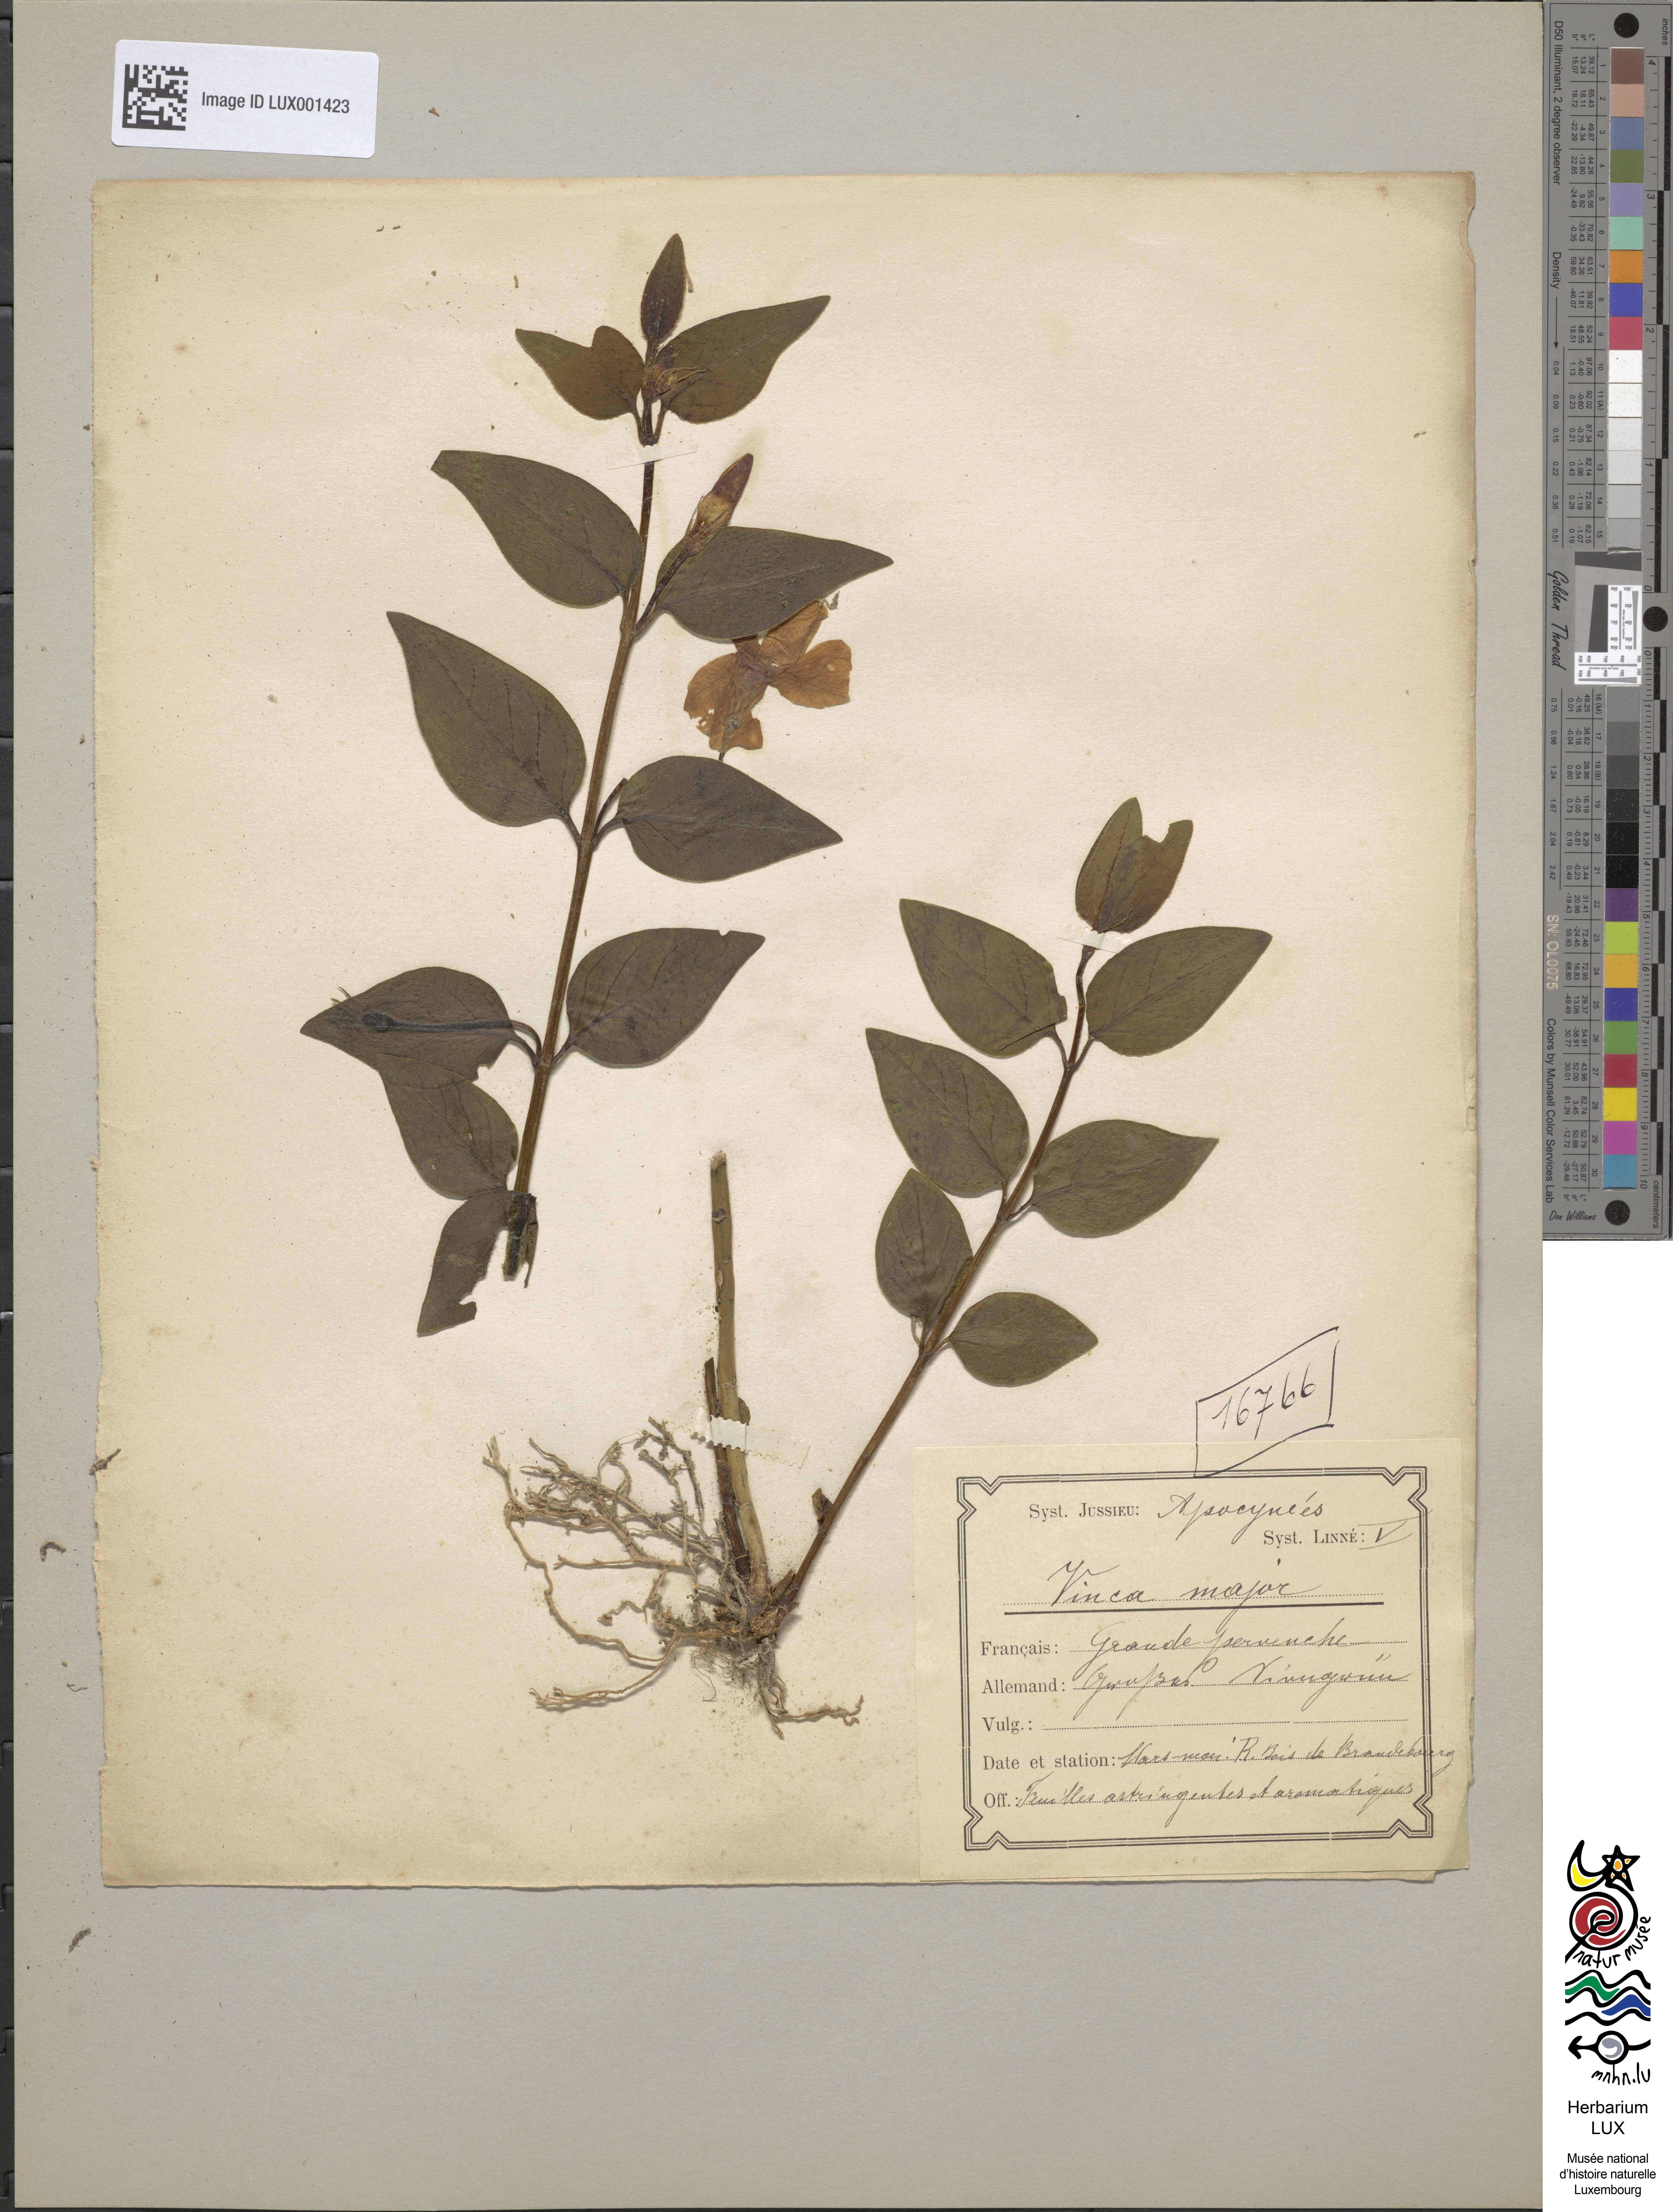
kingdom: Plantae
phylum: Tracheophyta
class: Magnoliopsida
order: Gentianales
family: Apocynaceae
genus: Vinca
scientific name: Vinca major
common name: Greater periwinkle
